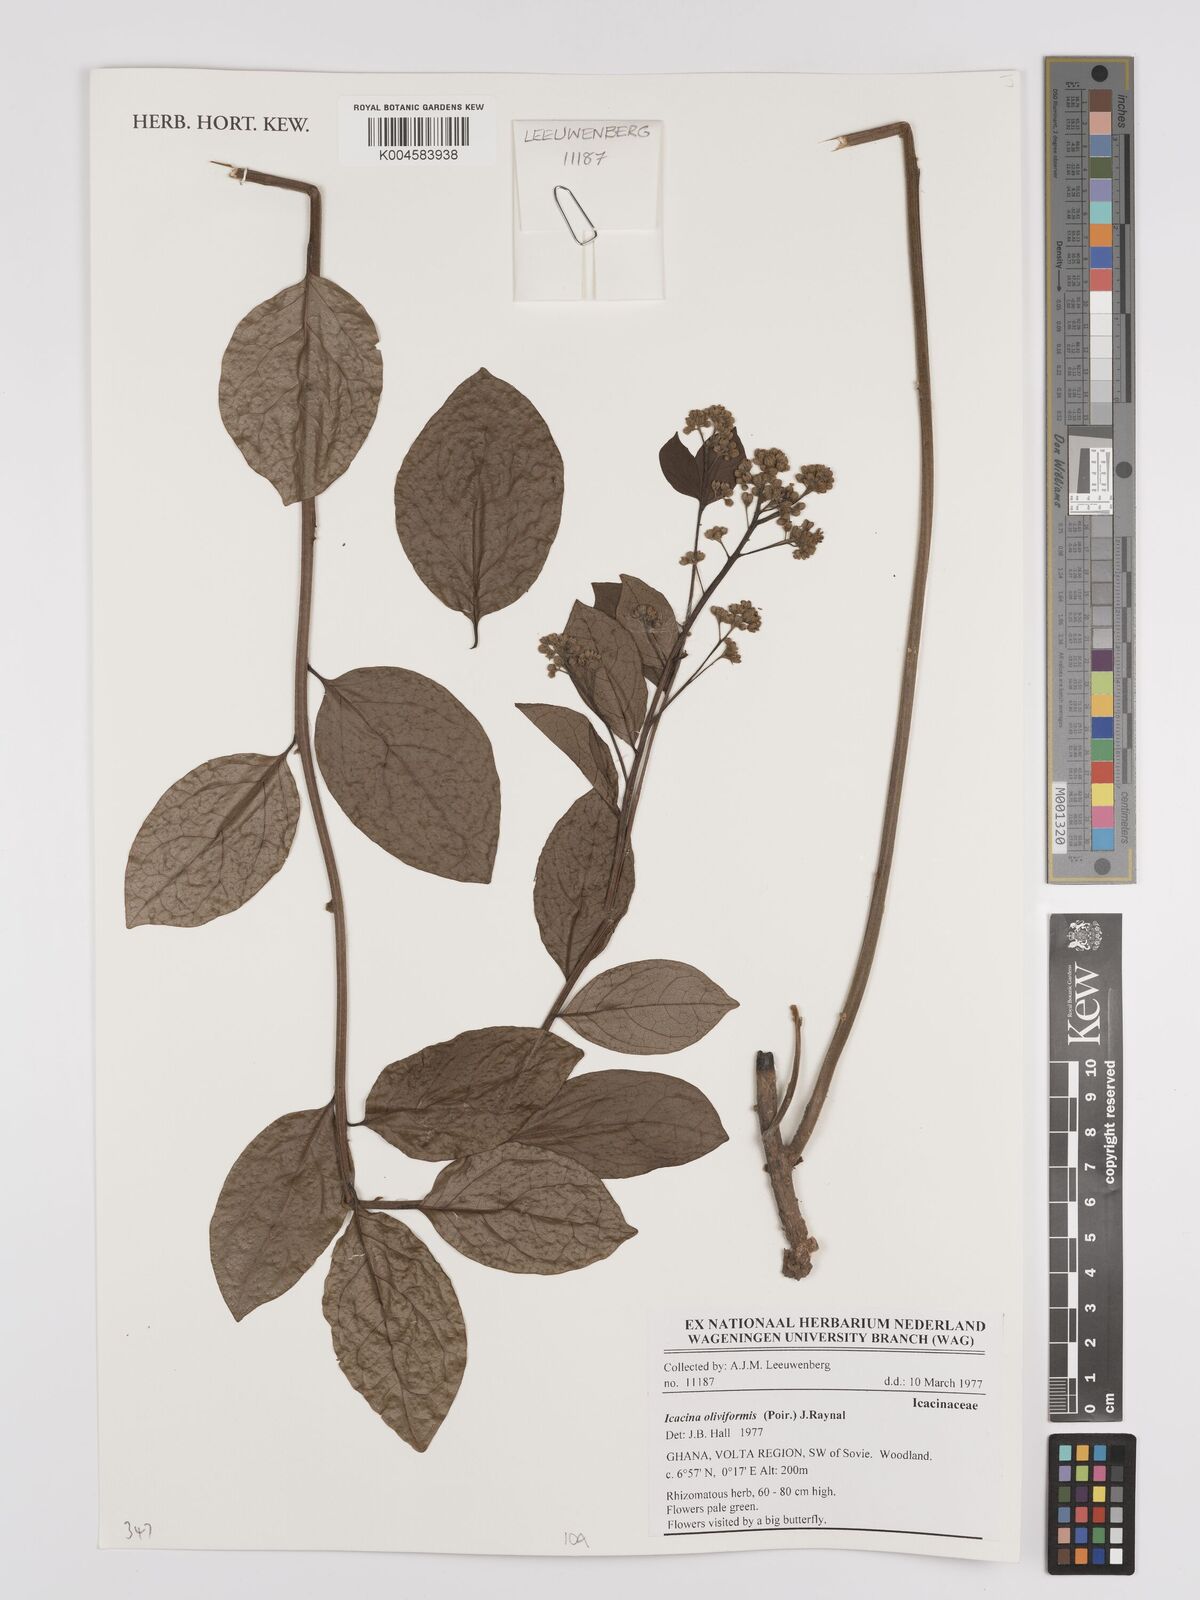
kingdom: Plantae
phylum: Tracheophyta
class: Magnoliopsida
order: Icacinales
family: Icacinaceae
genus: Icacina
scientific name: Icacina oliviformis
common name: False yam
